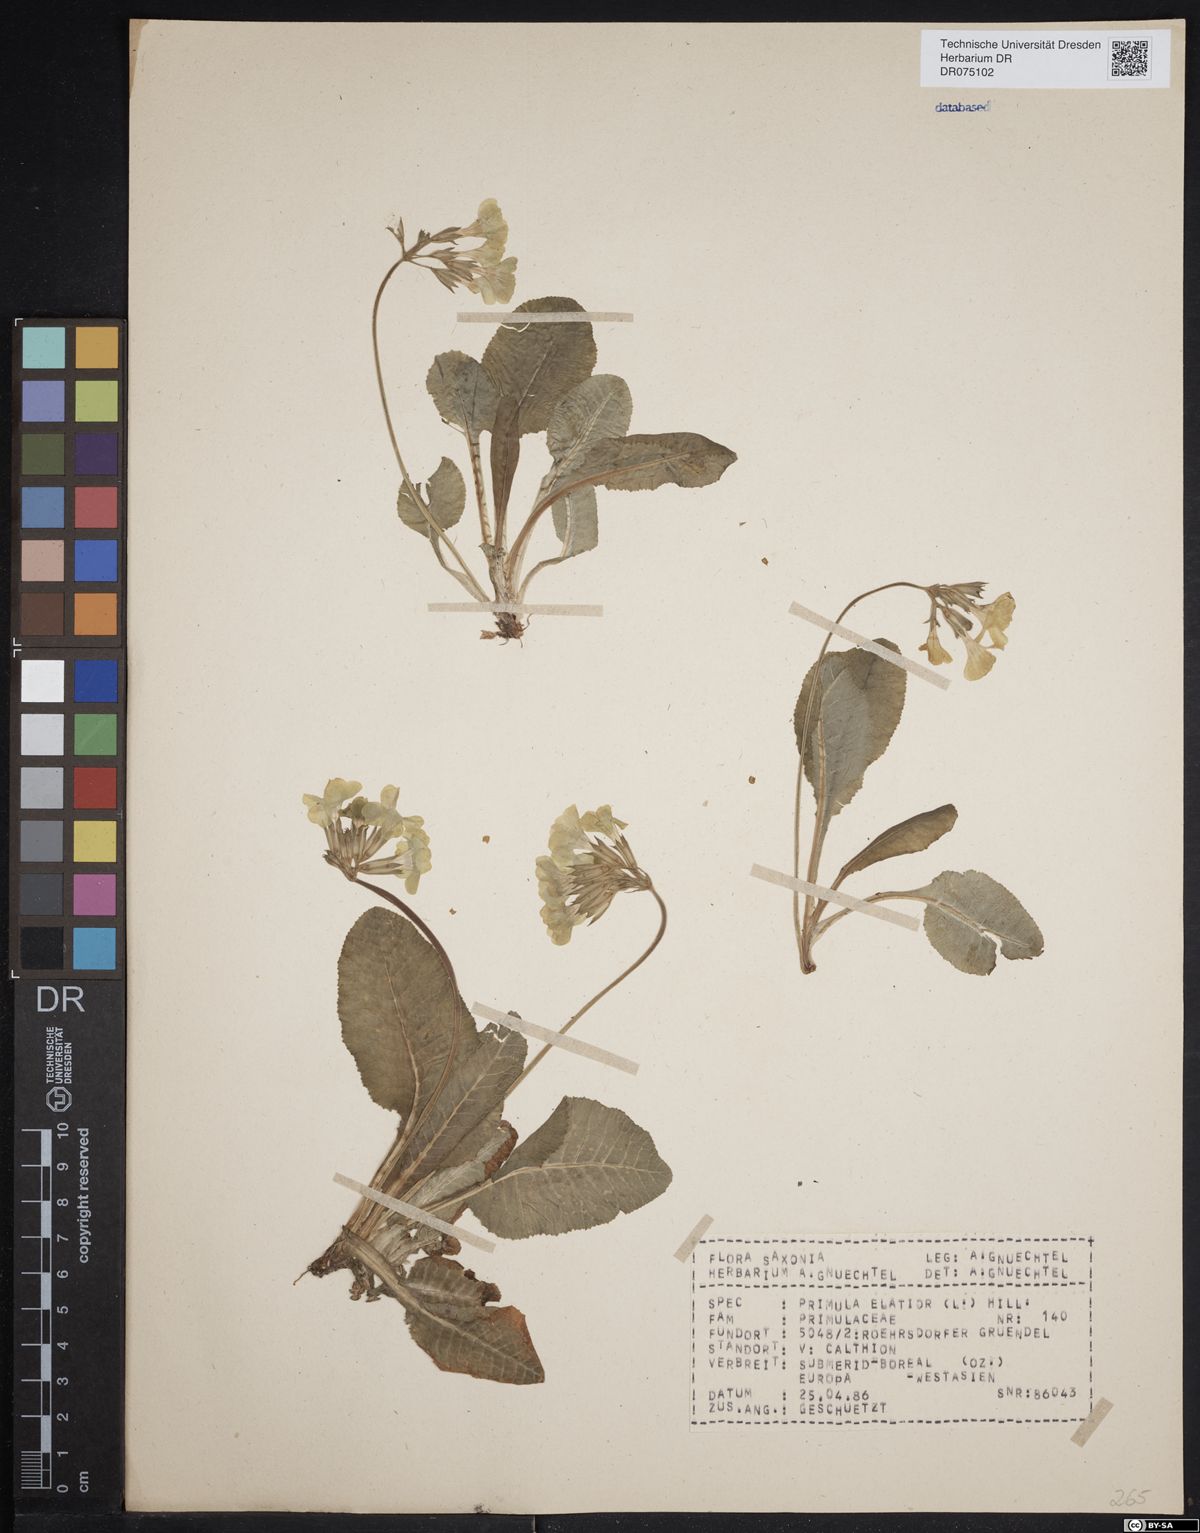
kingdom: Plantae
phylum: Tracheophyta
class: Magnoliopsida
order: Ericales
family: Primulaceae
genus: Primula
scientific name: Primula elatior
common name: Oxlip
